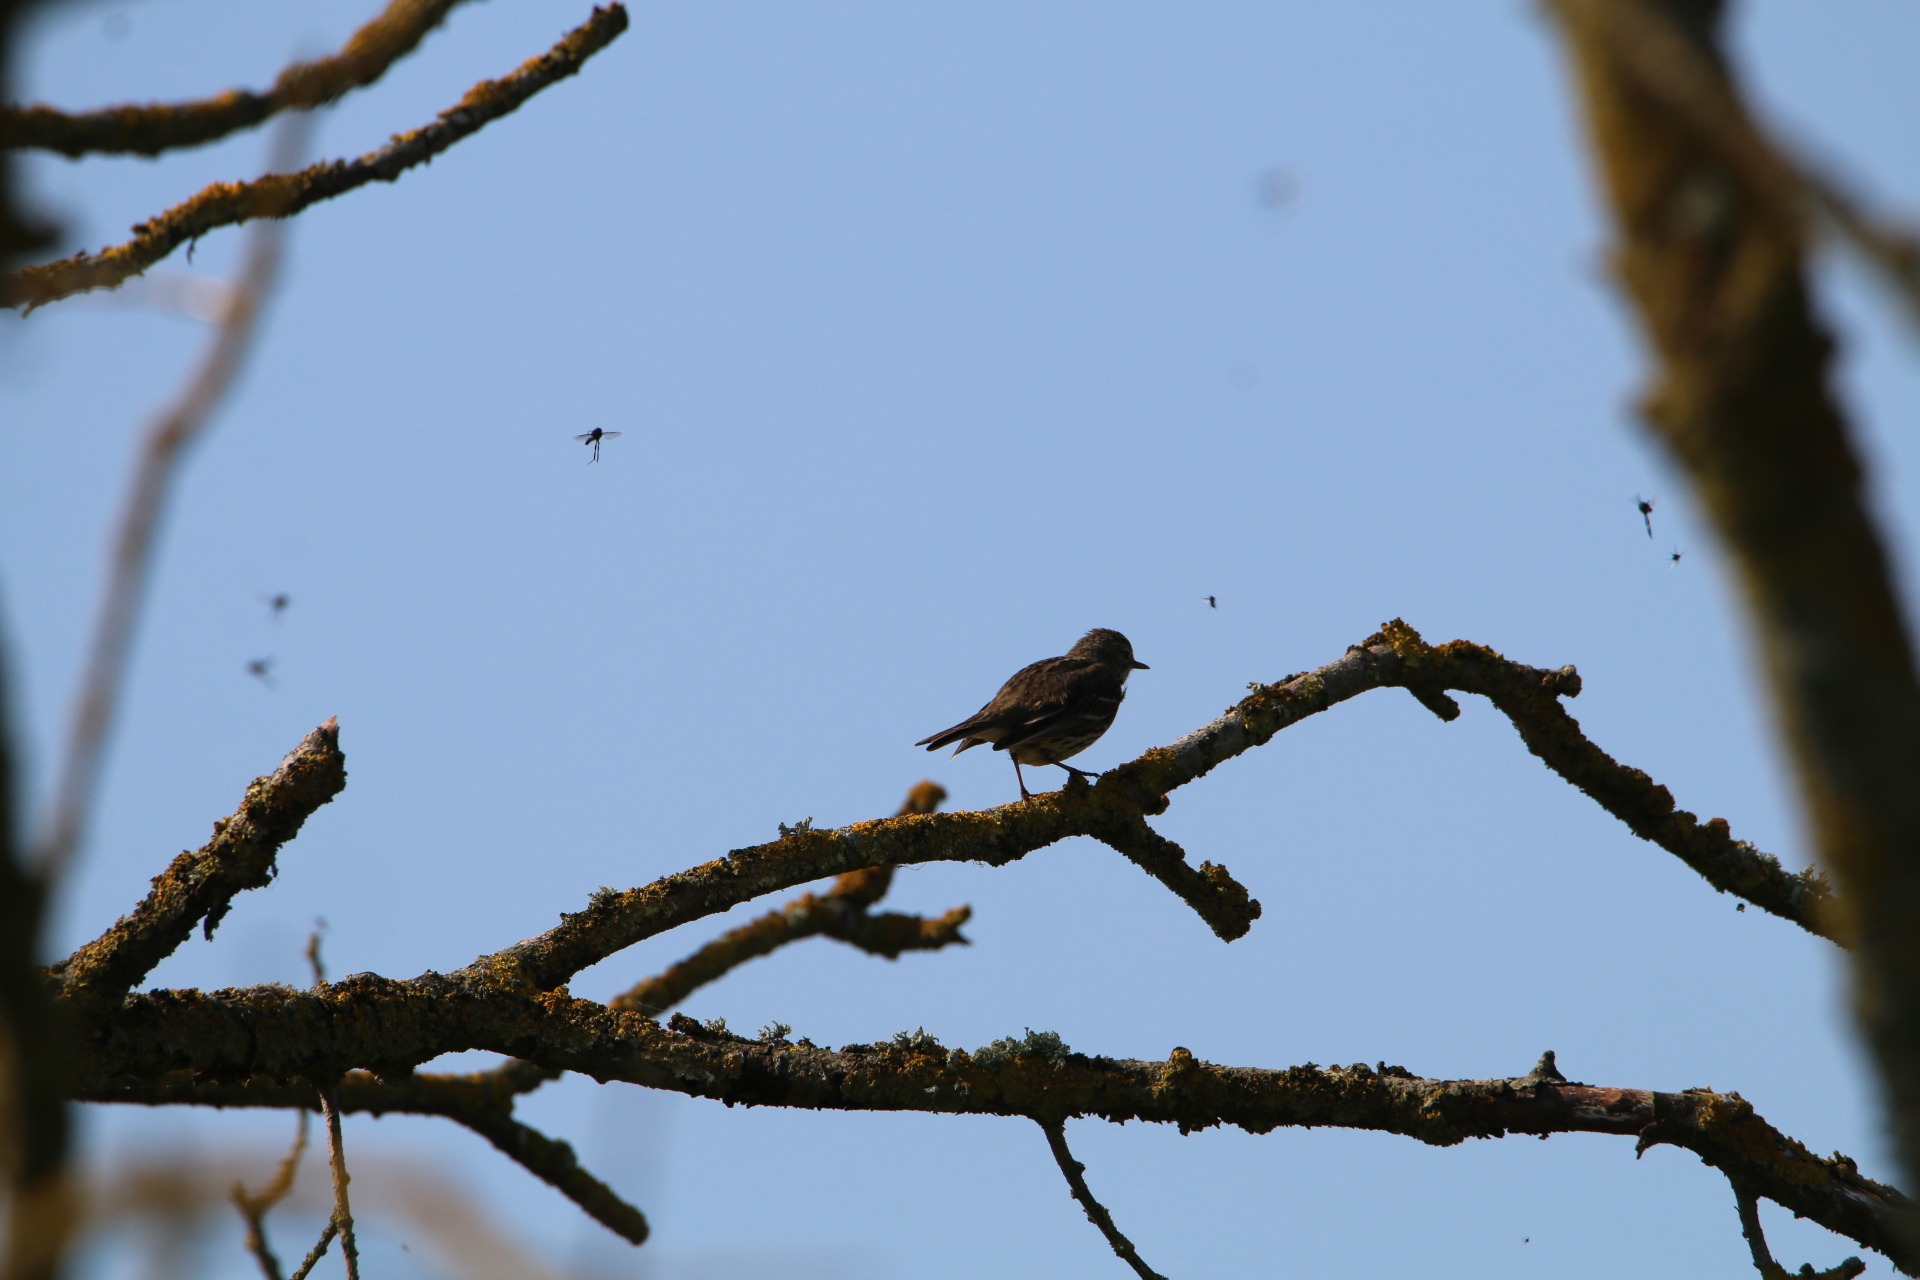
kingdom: Animalia
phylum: Chordata
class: Aves
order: Passeriformes
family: Motacillidae
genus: Anthus
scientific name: Anthus pratensis
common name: Engpiber
